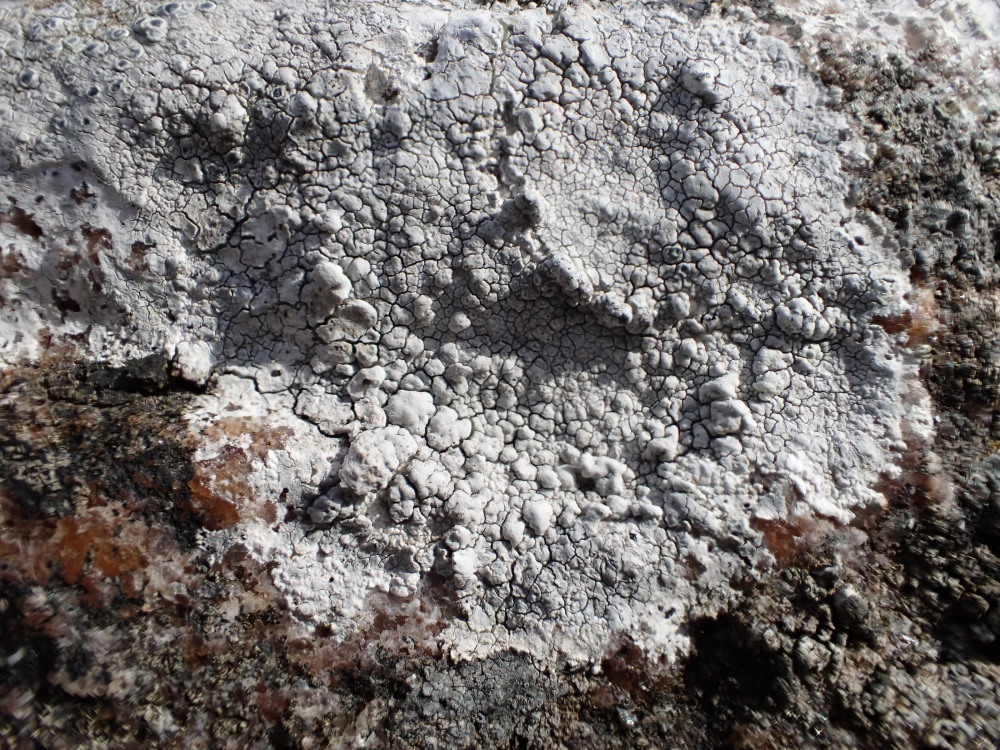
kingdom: Fungi
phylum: Ascomycota
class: Lecanoromycetes
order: Lecanorales
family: Lecanoraceae
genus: Glaucomaria
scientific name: Glaucomaria rupicola
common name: stengærde-kantskivelav
